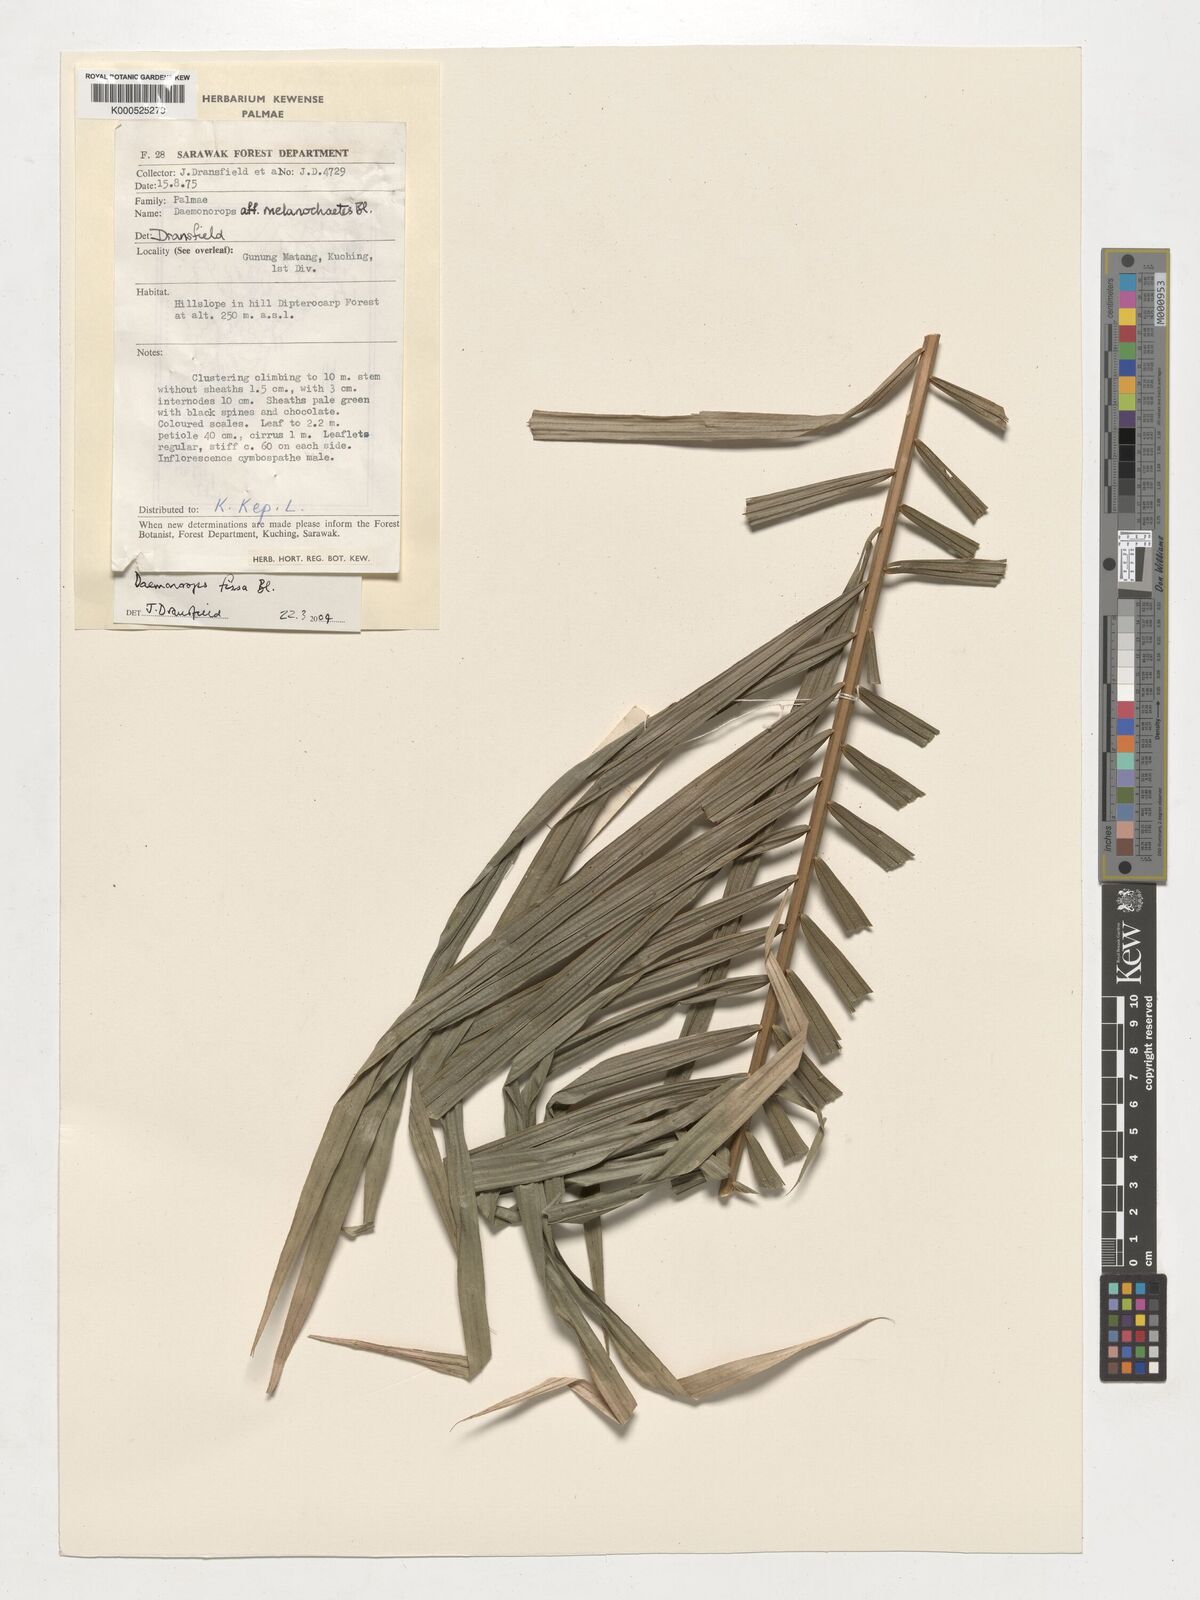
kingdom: Plantae
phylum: Tracheophyta
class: Liliopsida
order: Arecales
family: Arecaceae
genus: Calamus
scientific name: Calamus melanochaetes
